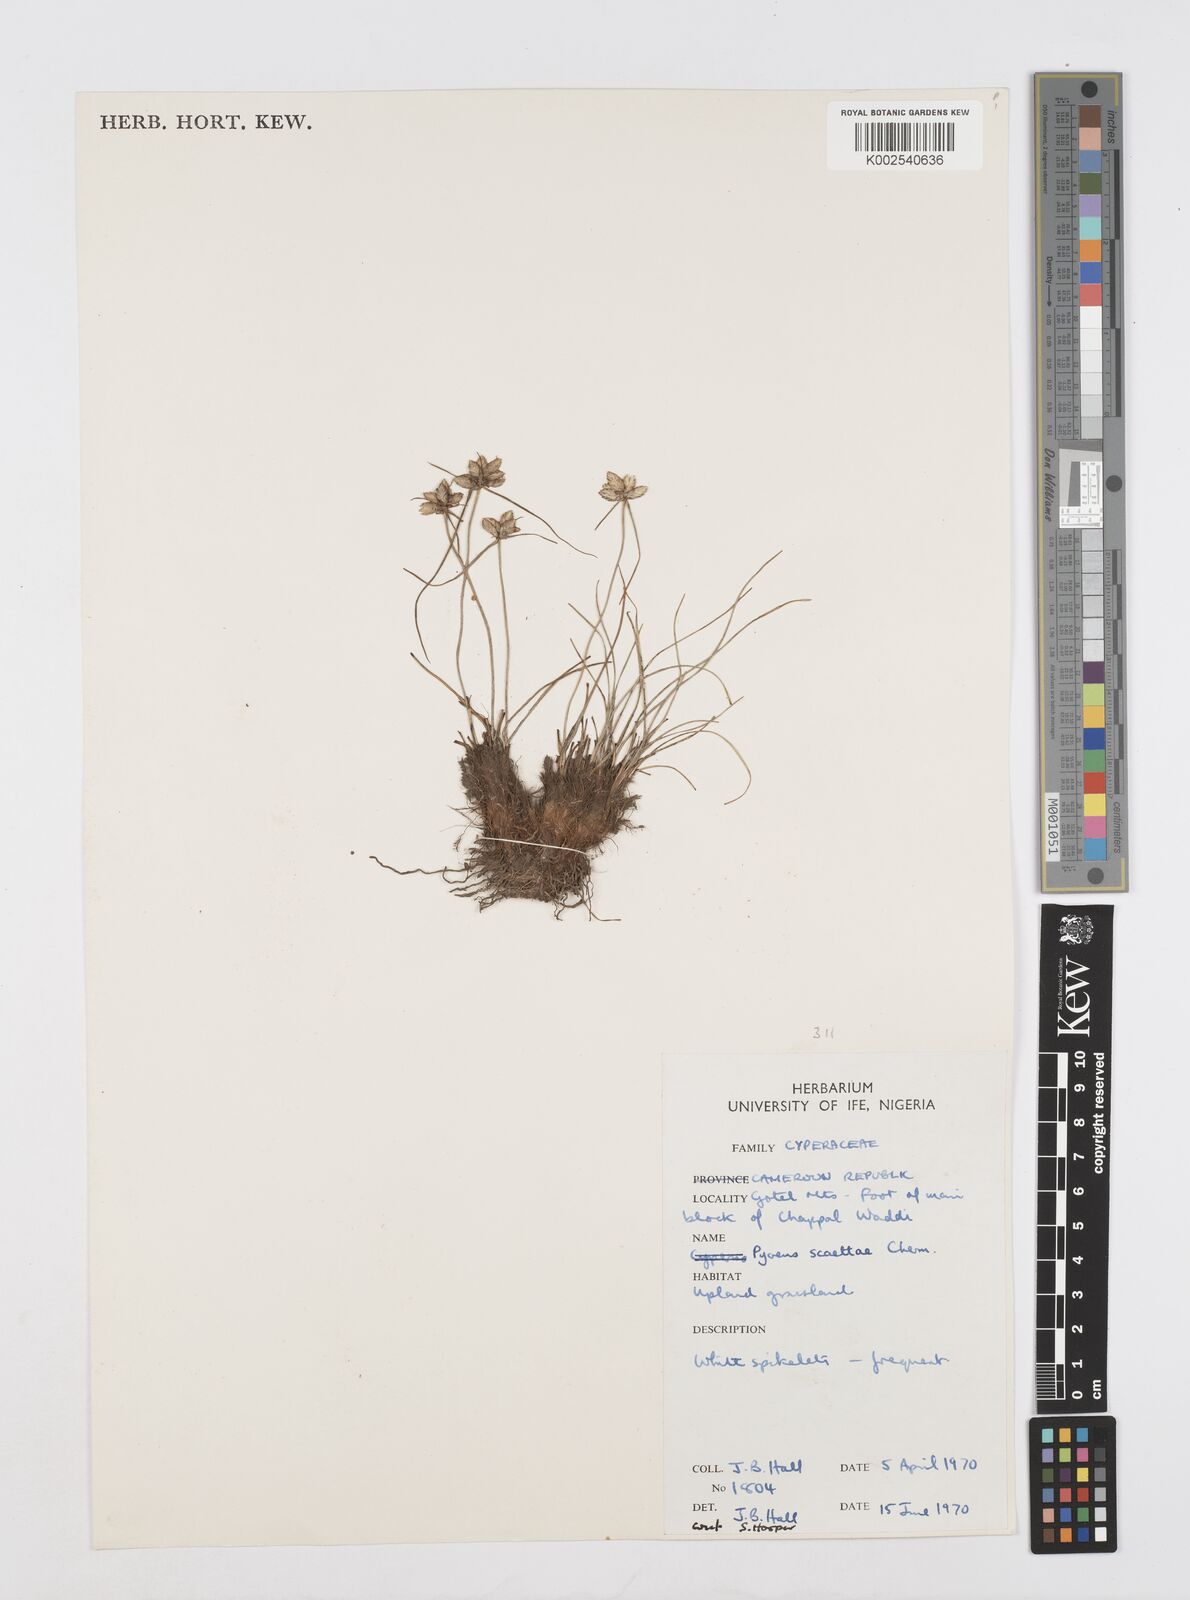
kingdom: Plantae
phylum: Tracheophyta
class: Liliopsida
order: Poales
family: Cyperaceae
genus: Cyperus
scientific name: Cyperus scaettae
